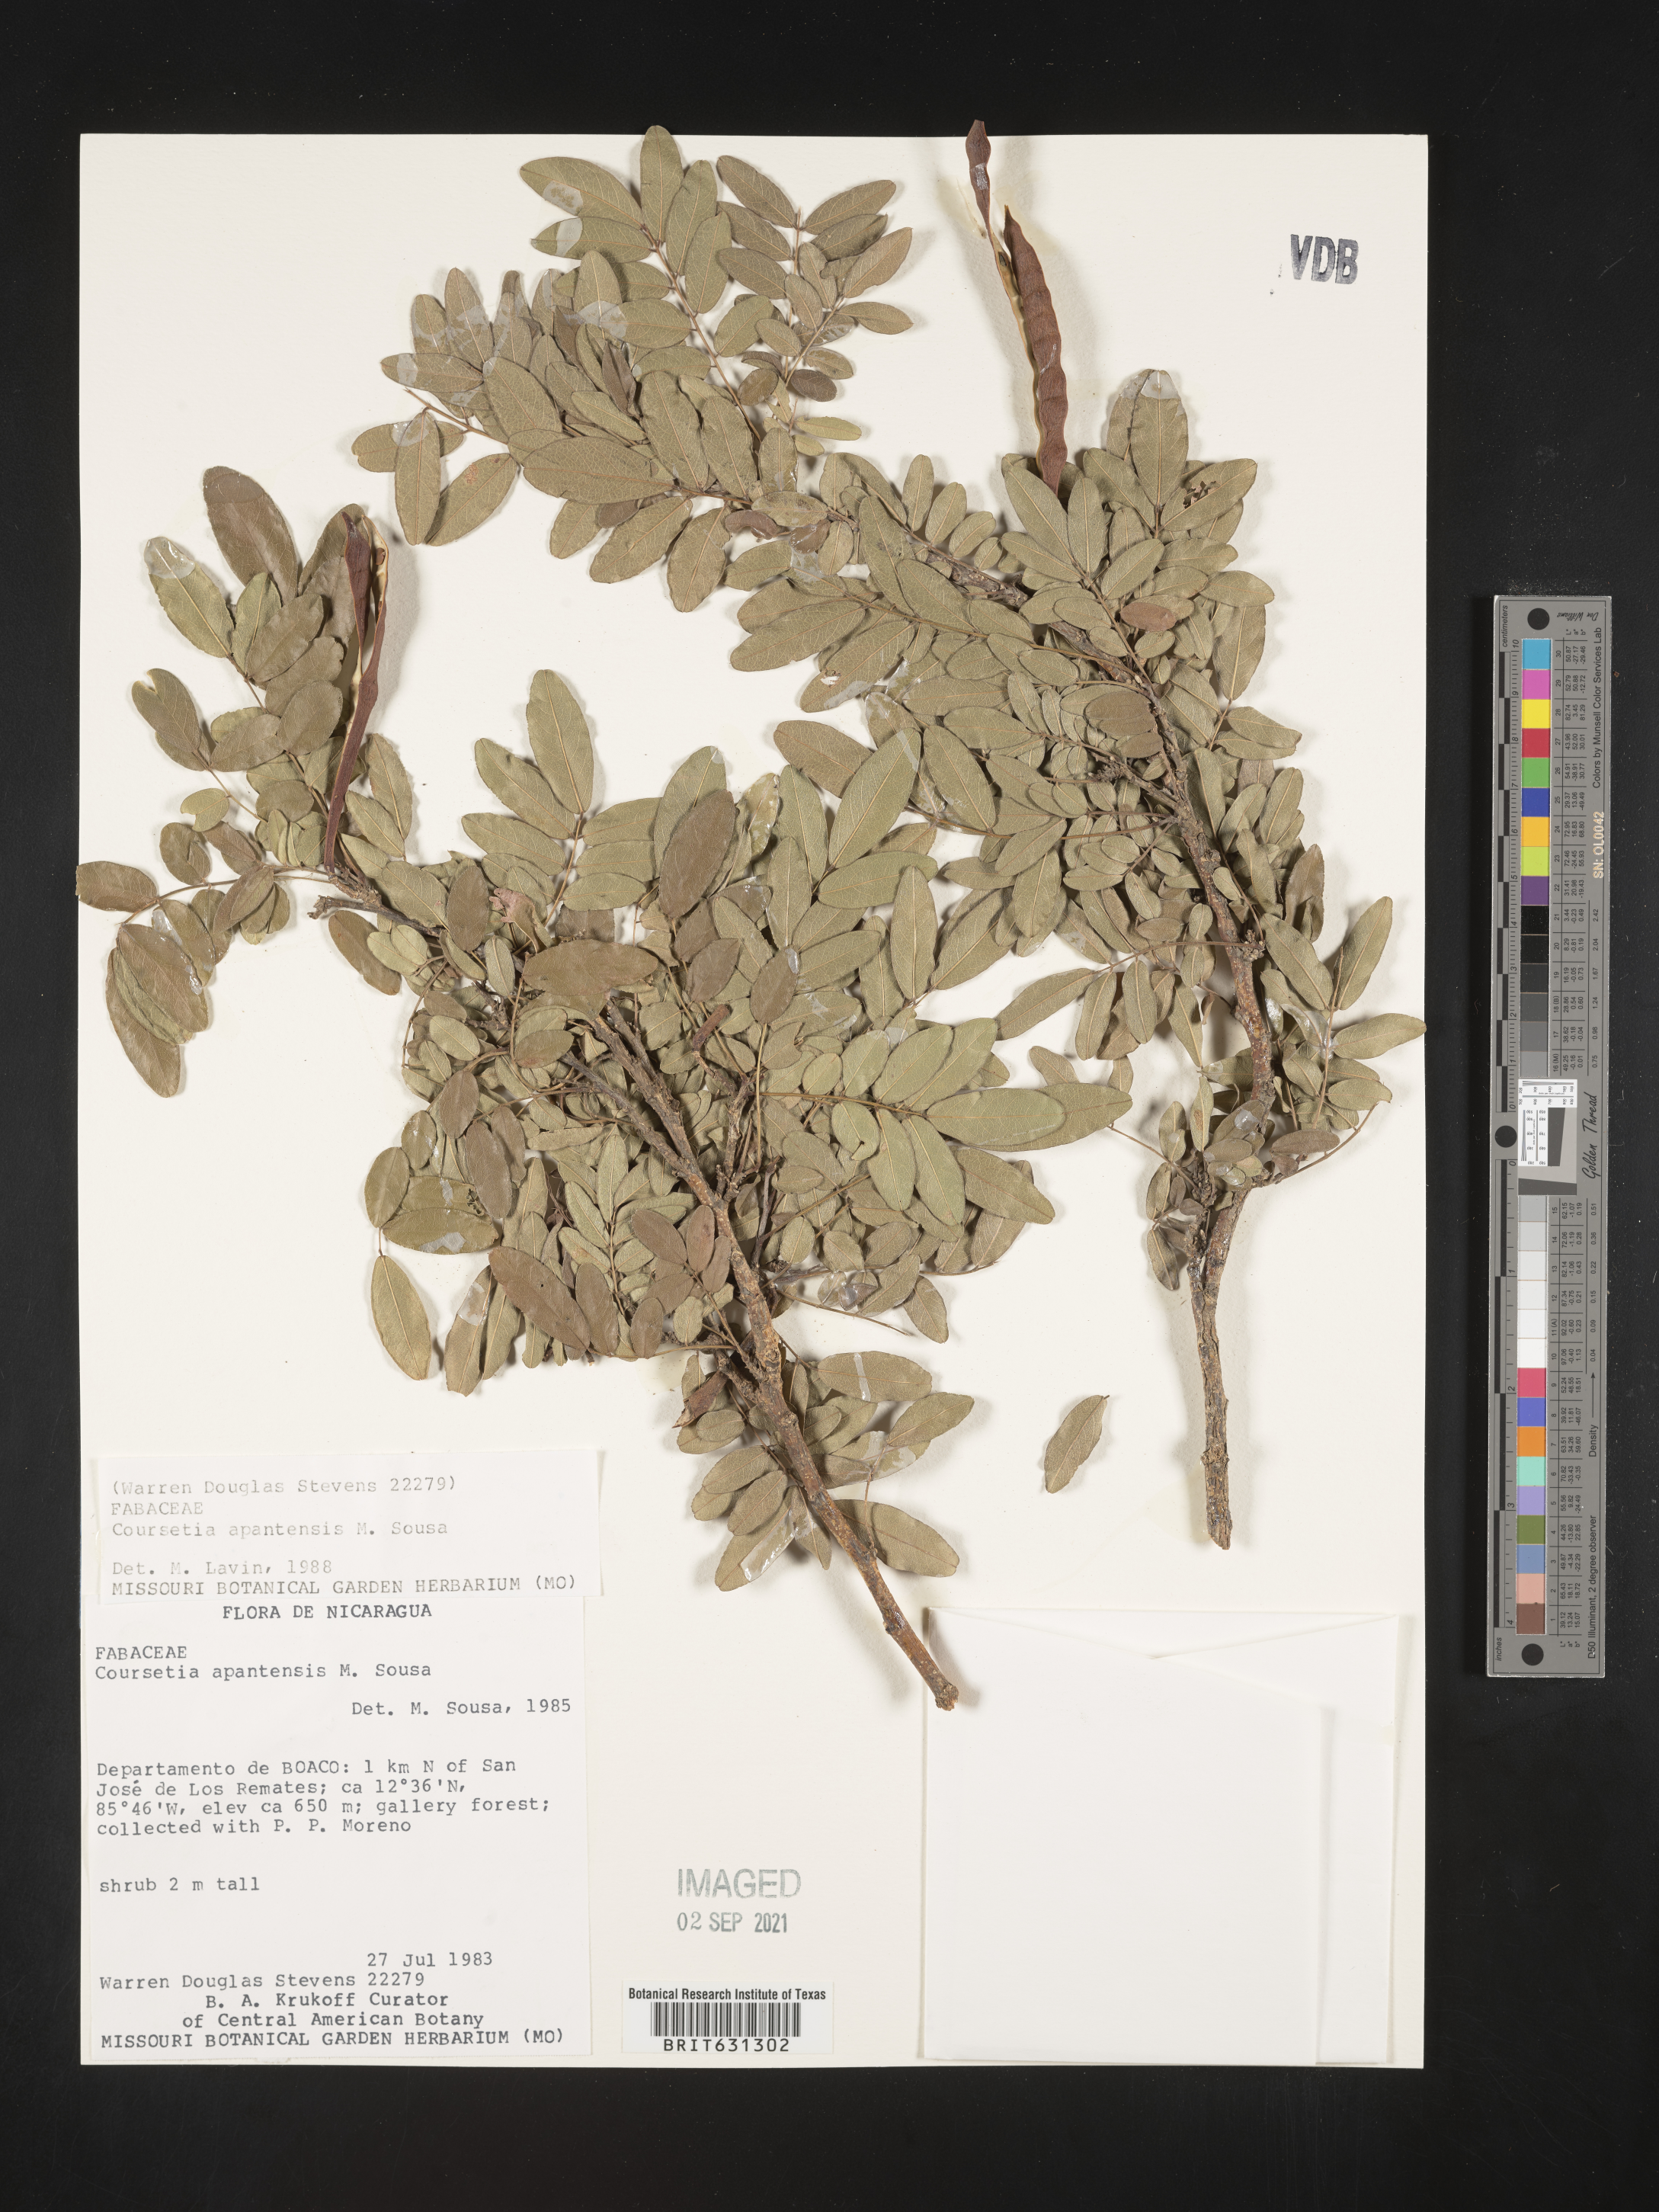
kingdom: Plantae
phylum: Tracheophyta
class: Magnoliopsida
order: Fabales
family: Fabaceae
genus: Coursetia
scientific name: Coursetia apantensis
